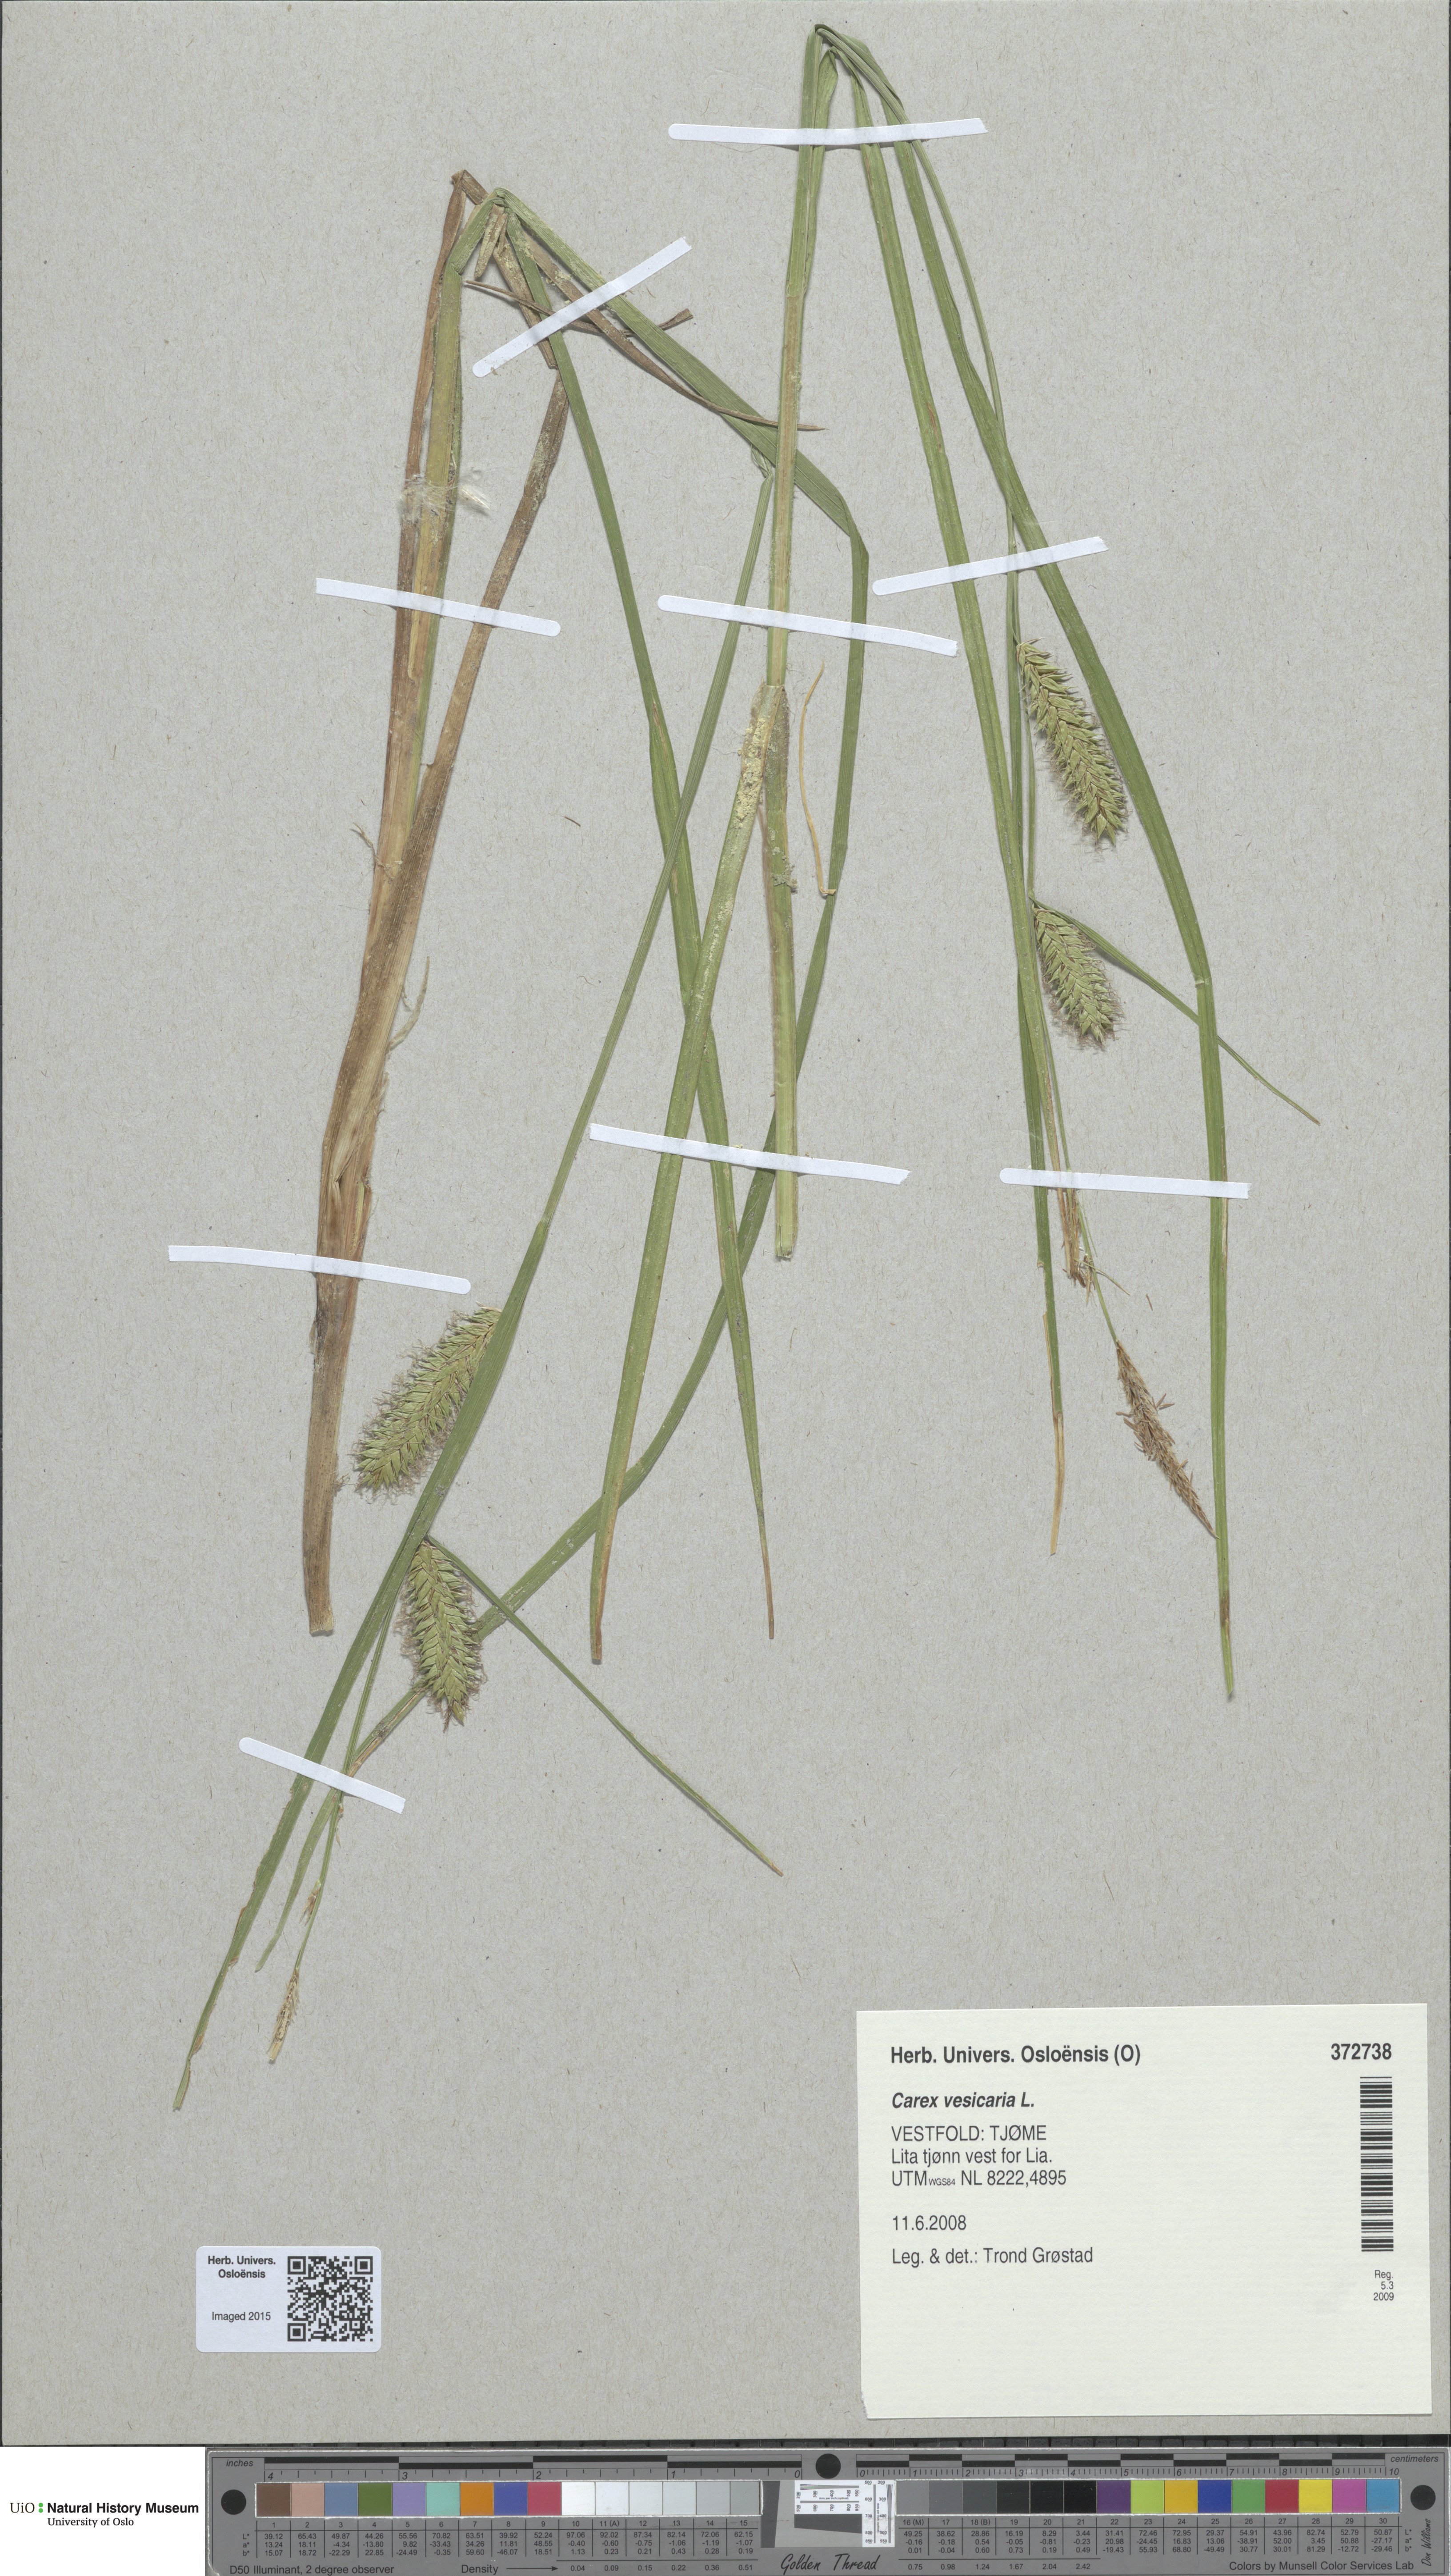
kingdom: Plantae
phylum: Tracheophyta
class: Liliopsida
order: Poales
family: Cyperaceae
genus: Carex
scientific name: Carex vesicaria
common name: Bladder-sedge
